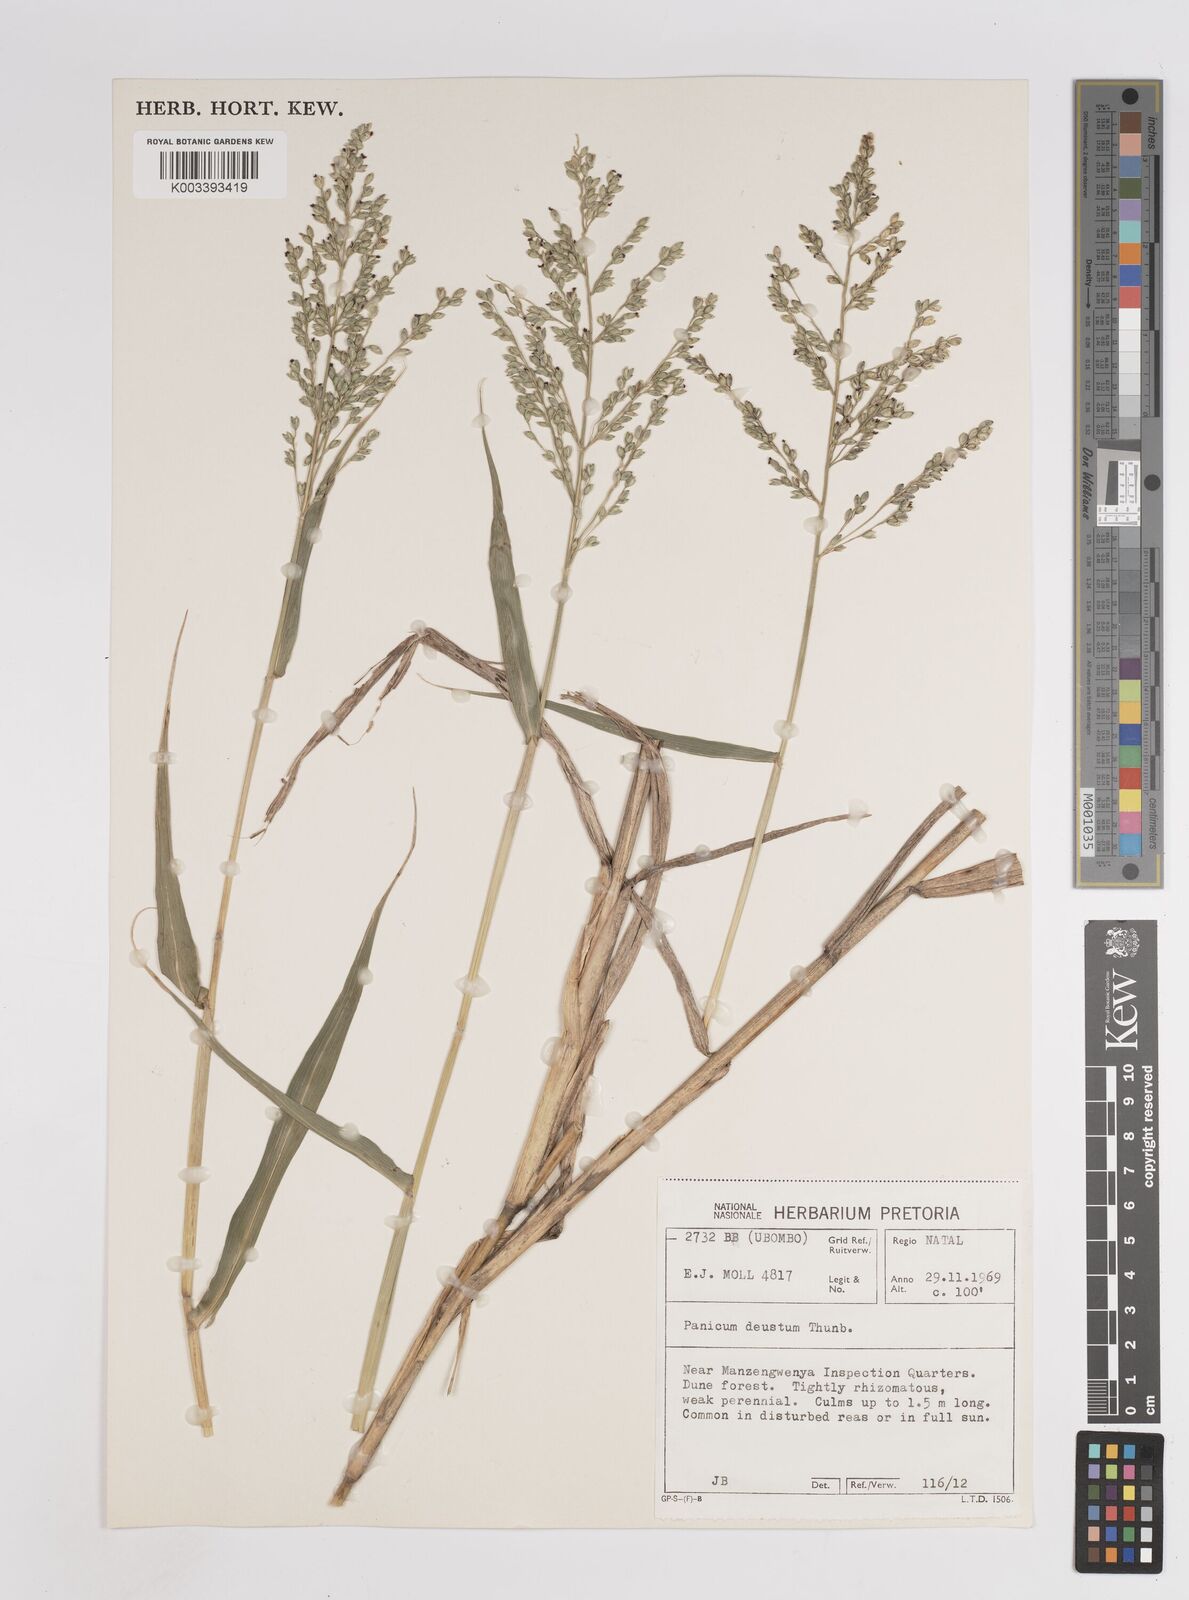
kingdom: Plantae
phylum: Tracheophyta
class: Liliopsida
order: Poales
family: Poaceae
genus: Panicum
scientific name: Panicum deustum
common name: Reed panicum
